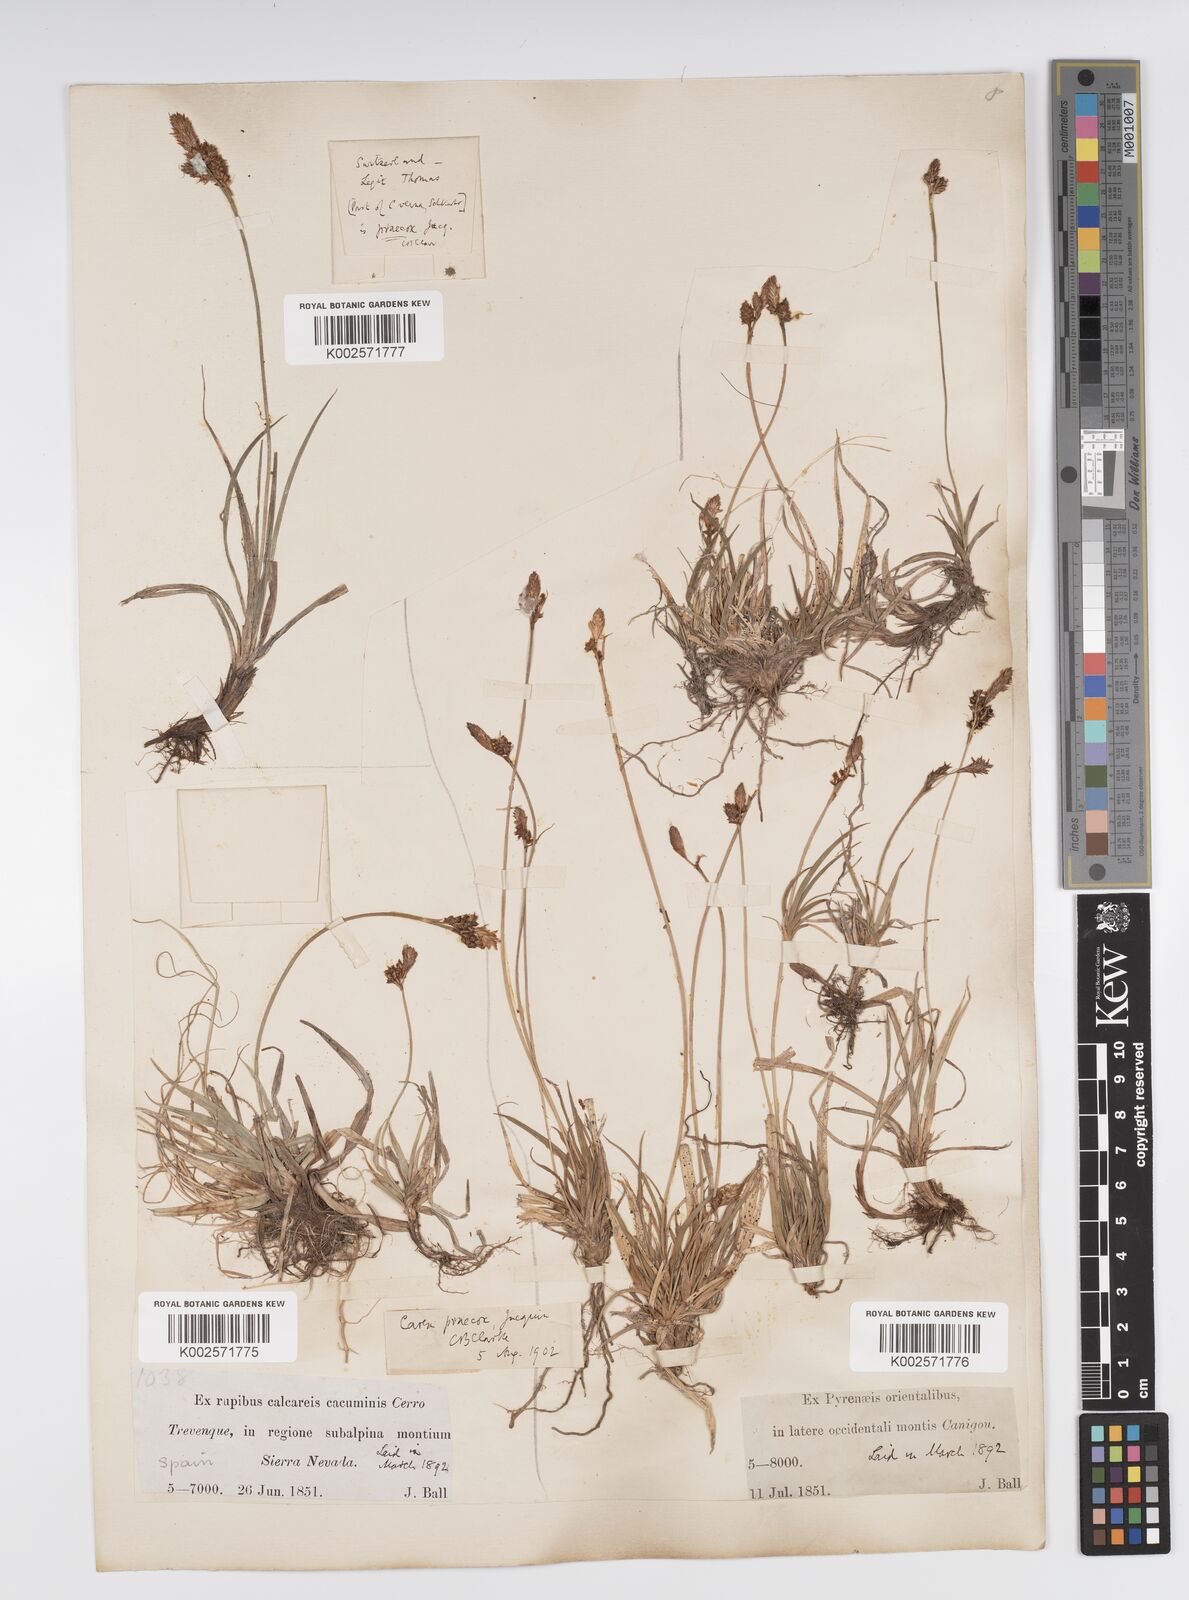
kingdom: Plantae
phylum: Tracheophyta
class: Liliopsida
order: Poales
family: Cyperaceae
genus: Carex
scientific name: Carex caryophyllea
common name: Spring sedge
